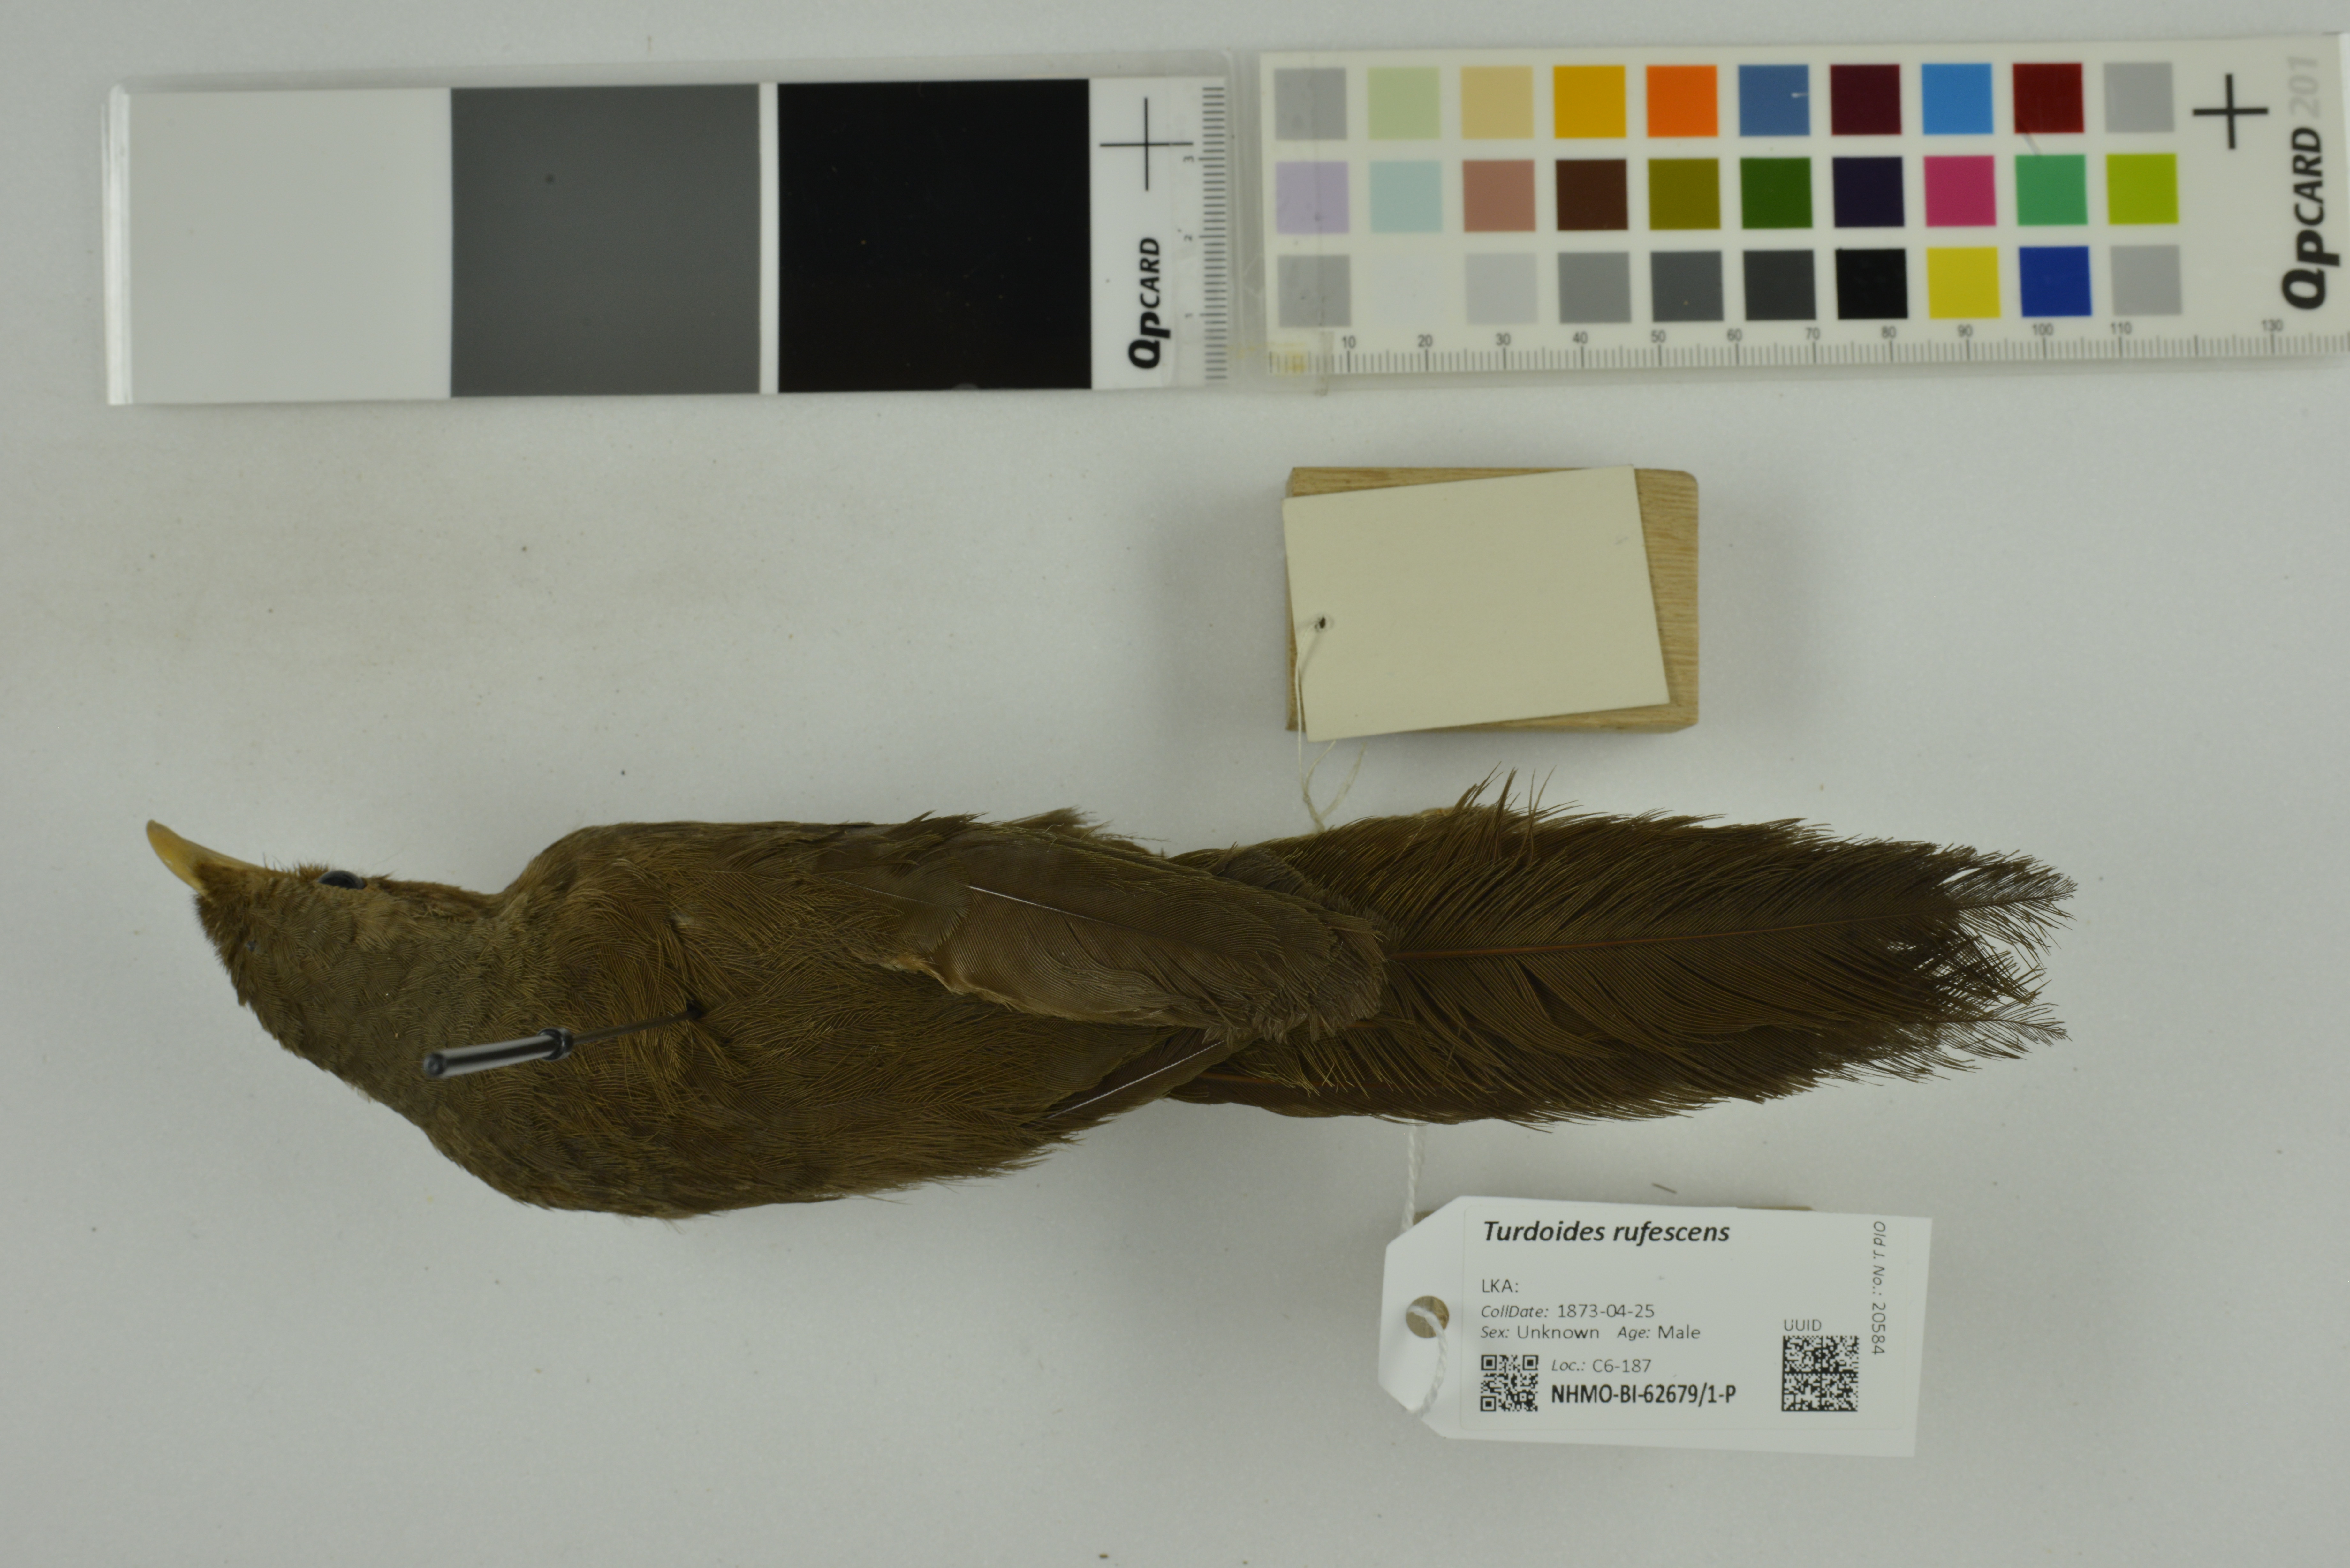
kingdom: Animalia
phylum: Chordata
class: Aves
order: Passeriformes
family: Leiothrichidae
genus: Turdoides
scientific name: Turdoides rufescens
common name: Orange-billed babbler
